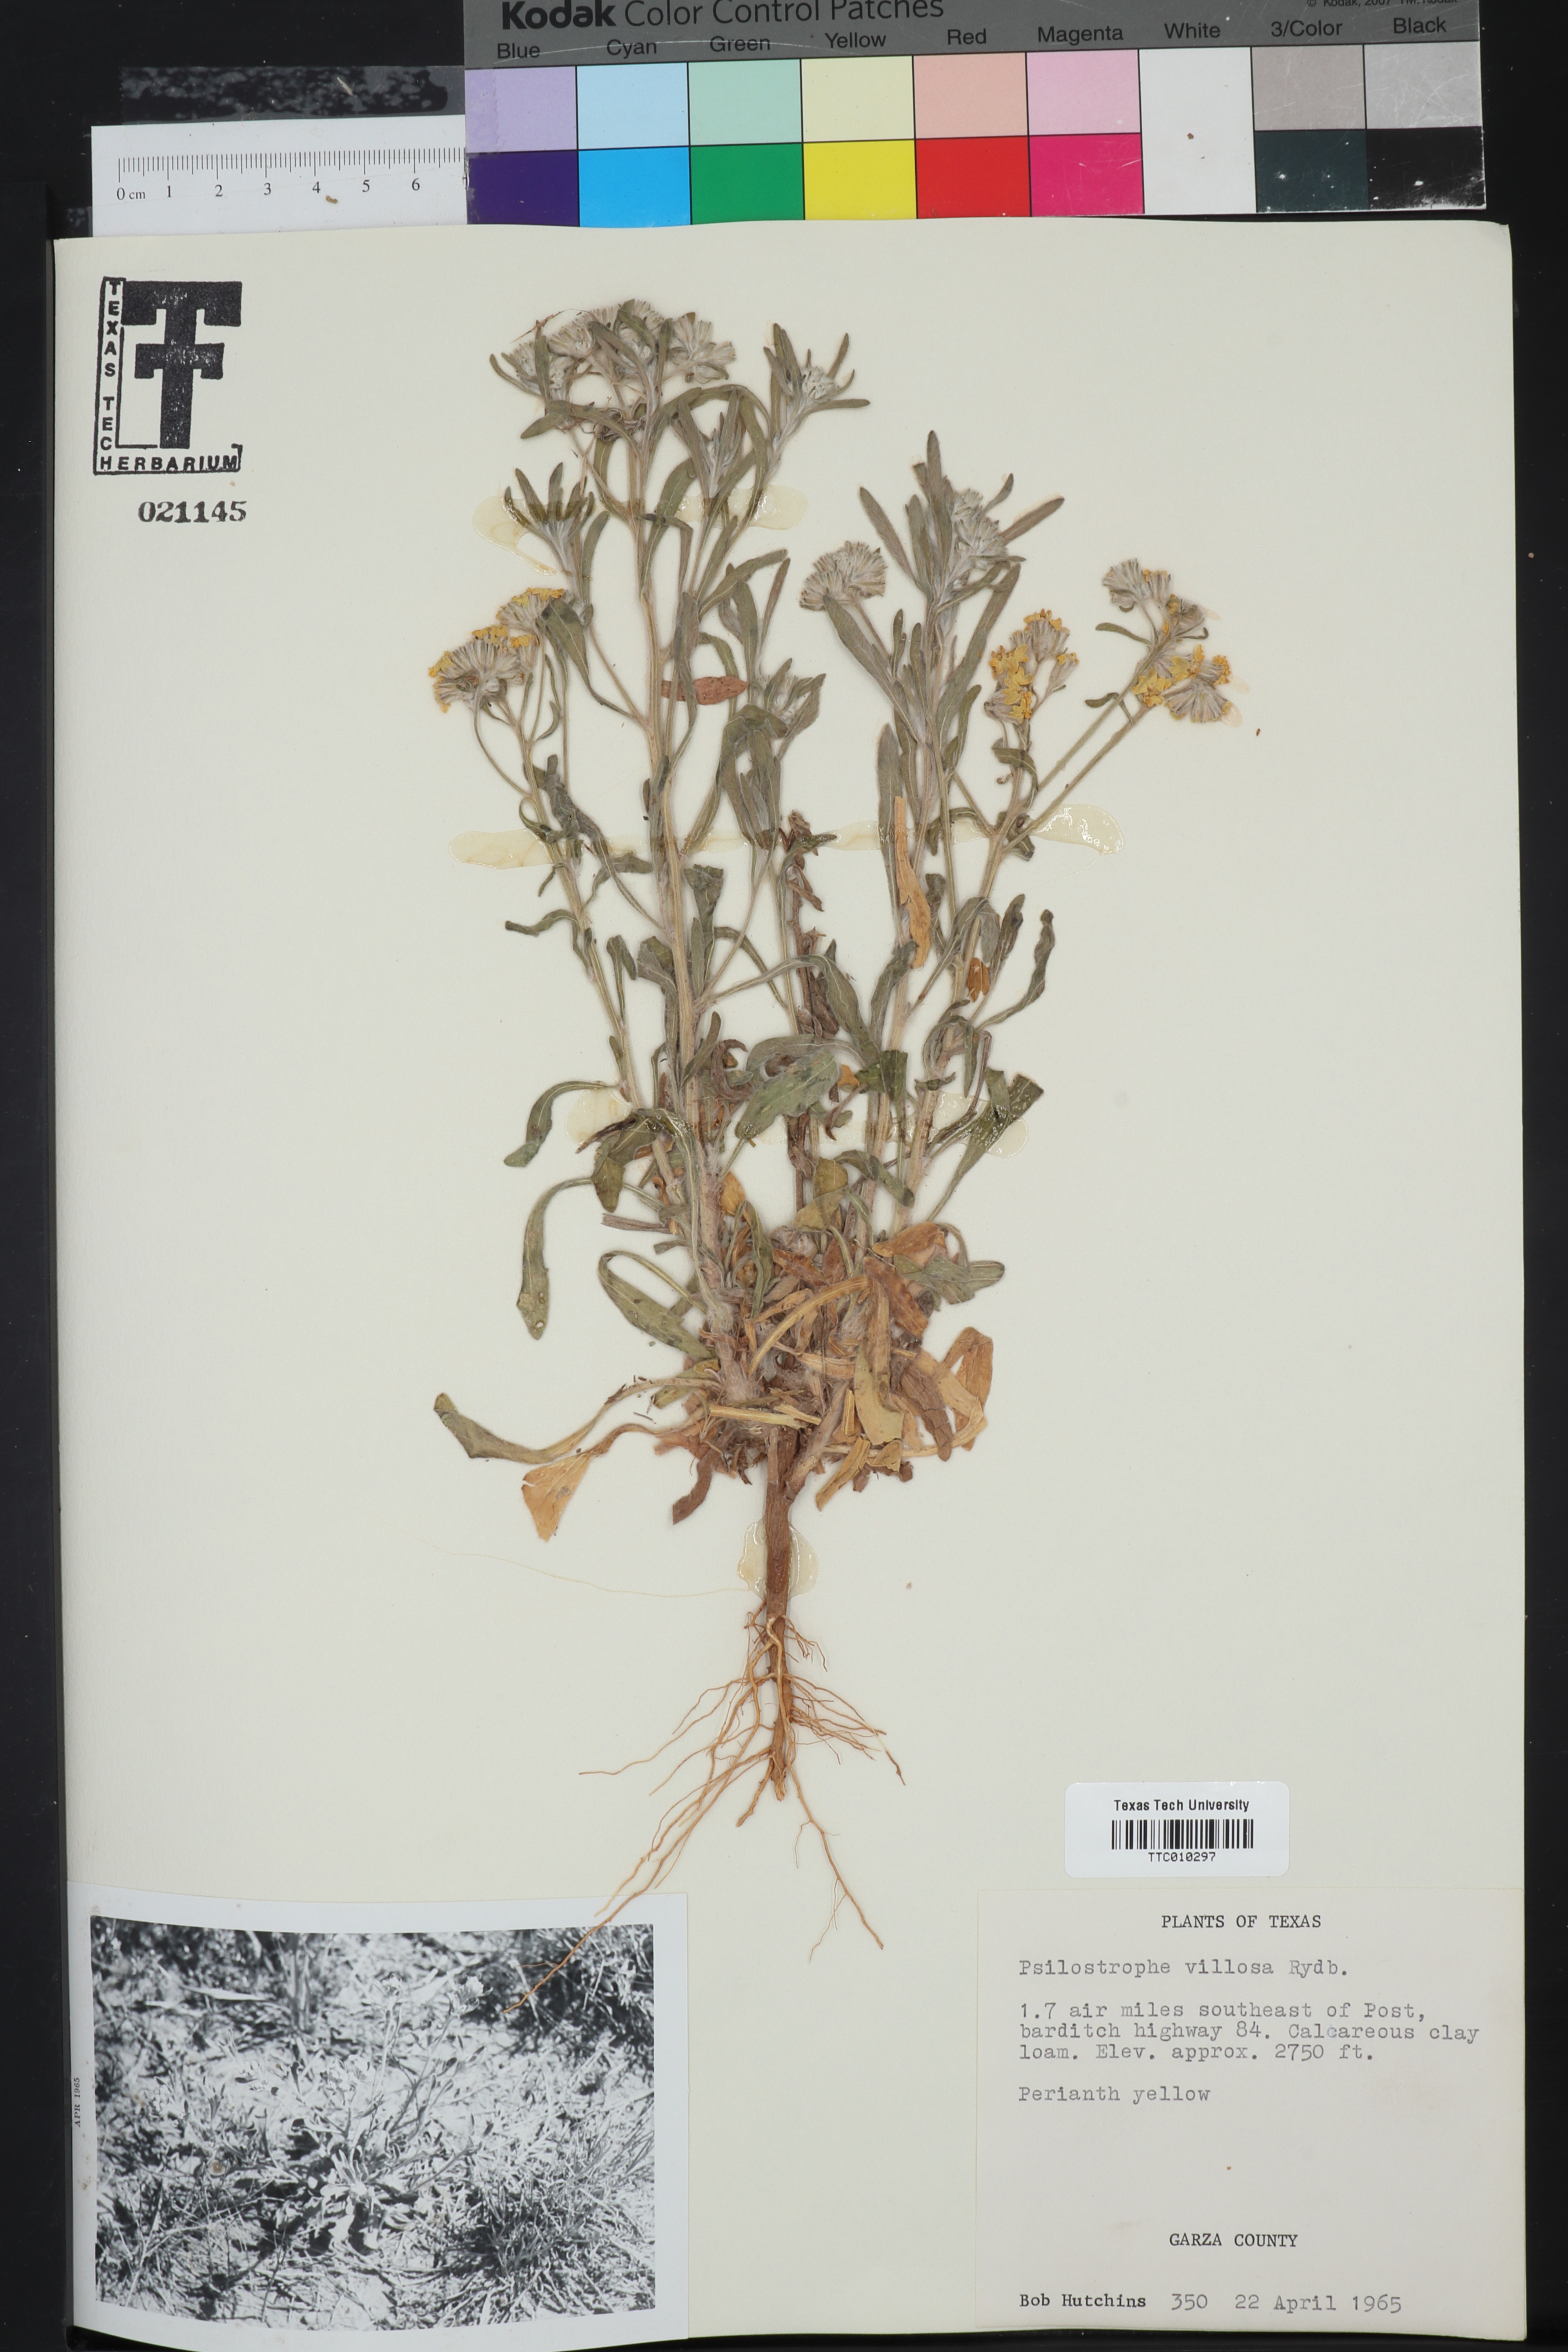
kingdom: Plantae
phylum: Tracheophyta
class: Magnoliopsida
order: Asterales
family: Asteraceae
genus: Psilostrophe
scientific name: Psilostrophe villosa
